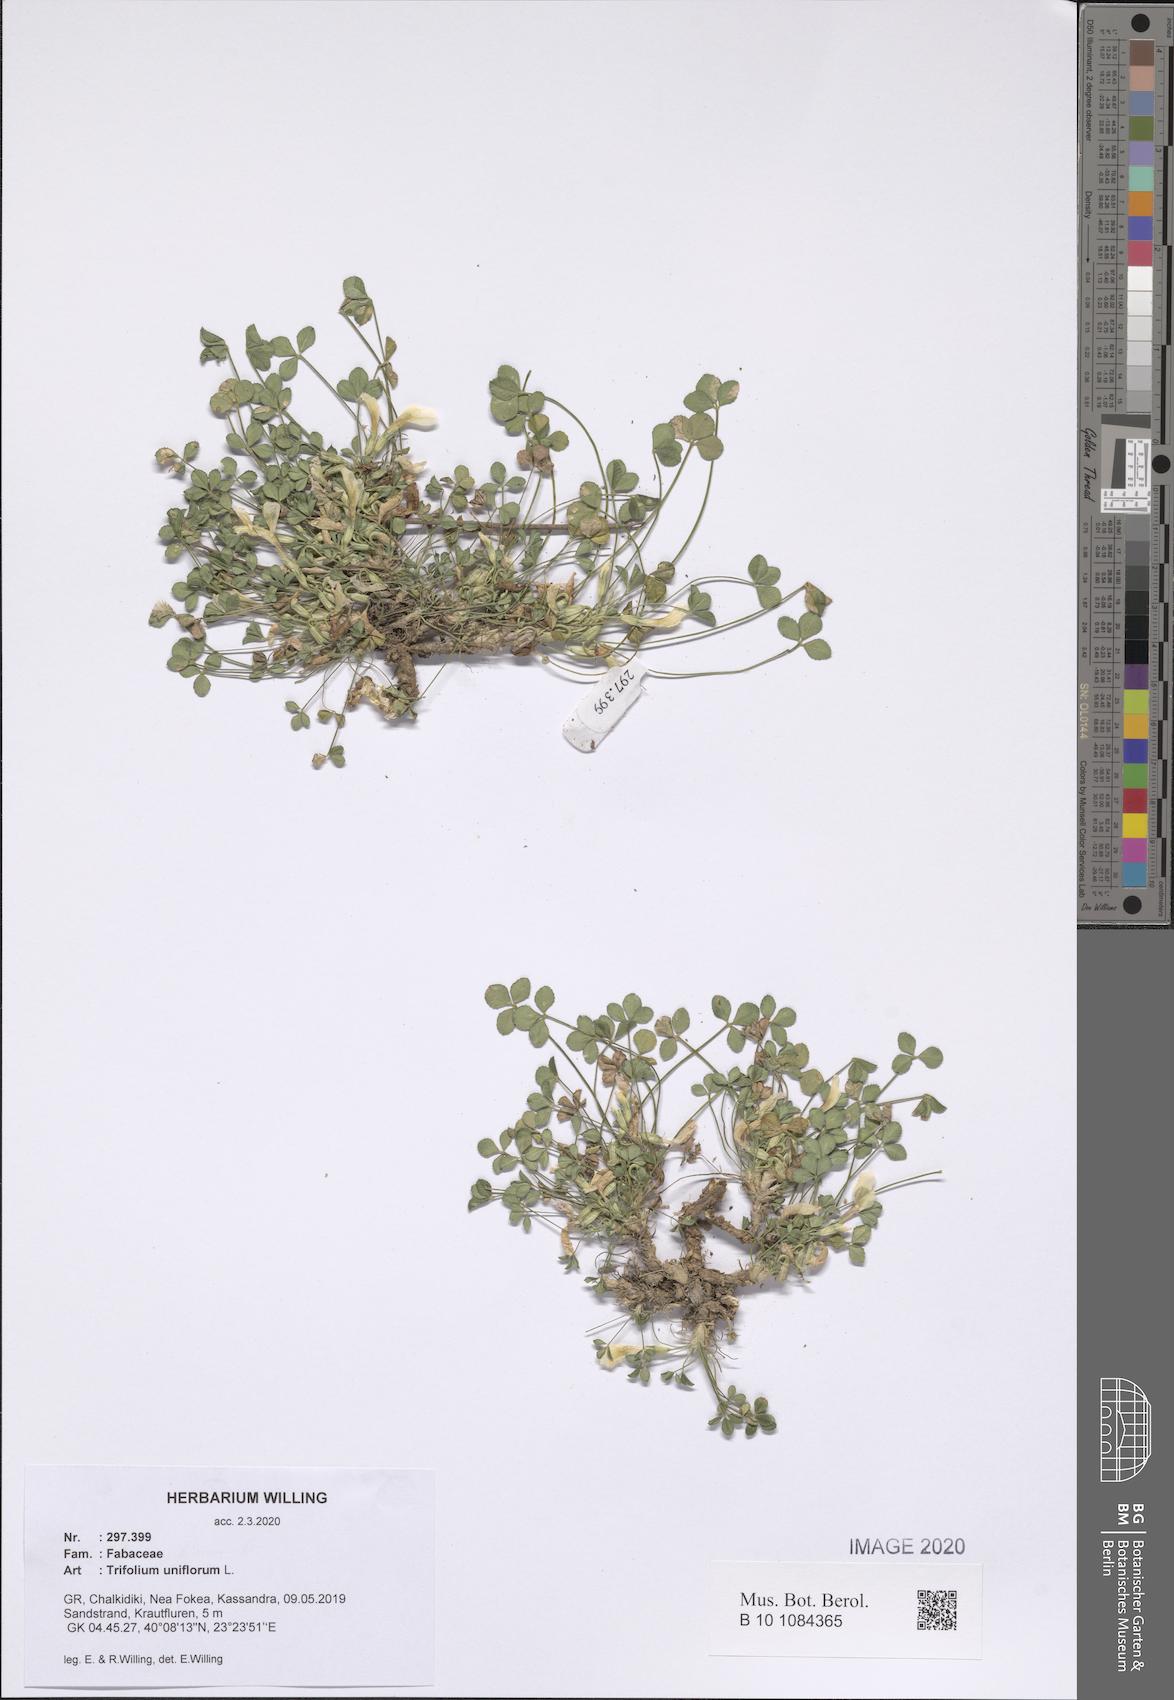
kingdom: Plantae
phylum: Tracheophyta
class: Magnoliopsida
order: Fabales
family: Fabaceae
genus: Trifolium
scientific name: Trifolium uniflorum
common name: One-flower clover
